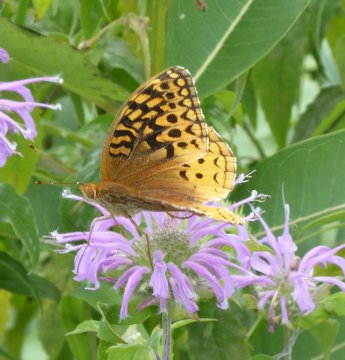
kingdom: Animalia
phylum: Arthropoda
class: Insecta
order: Lepidoptera
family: Nymphalidae
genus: Speyeria
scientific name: Speyeria cybele
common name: Great Spangled Fritillary
